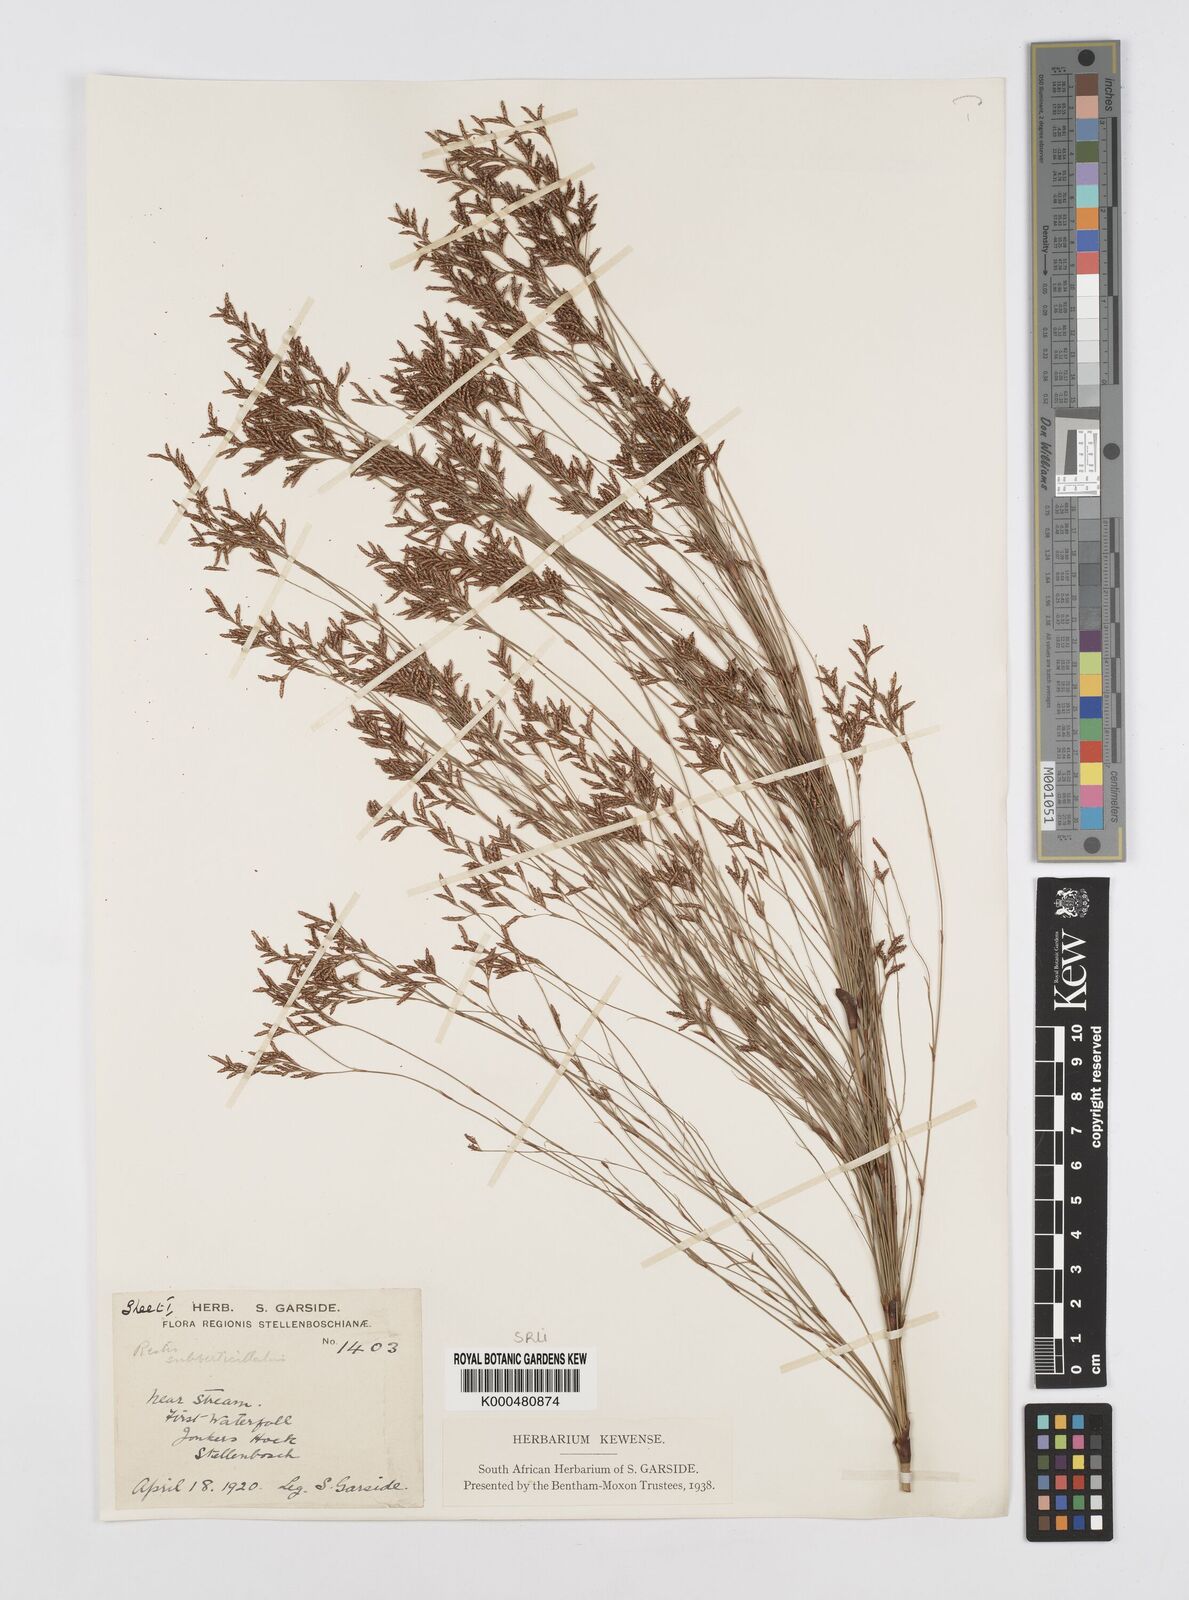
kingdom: Plantae
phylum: Tracheophyta
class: Liliopsida
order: Poales
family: Restionaceae
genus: Restio
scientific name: Restio subverticillatus
